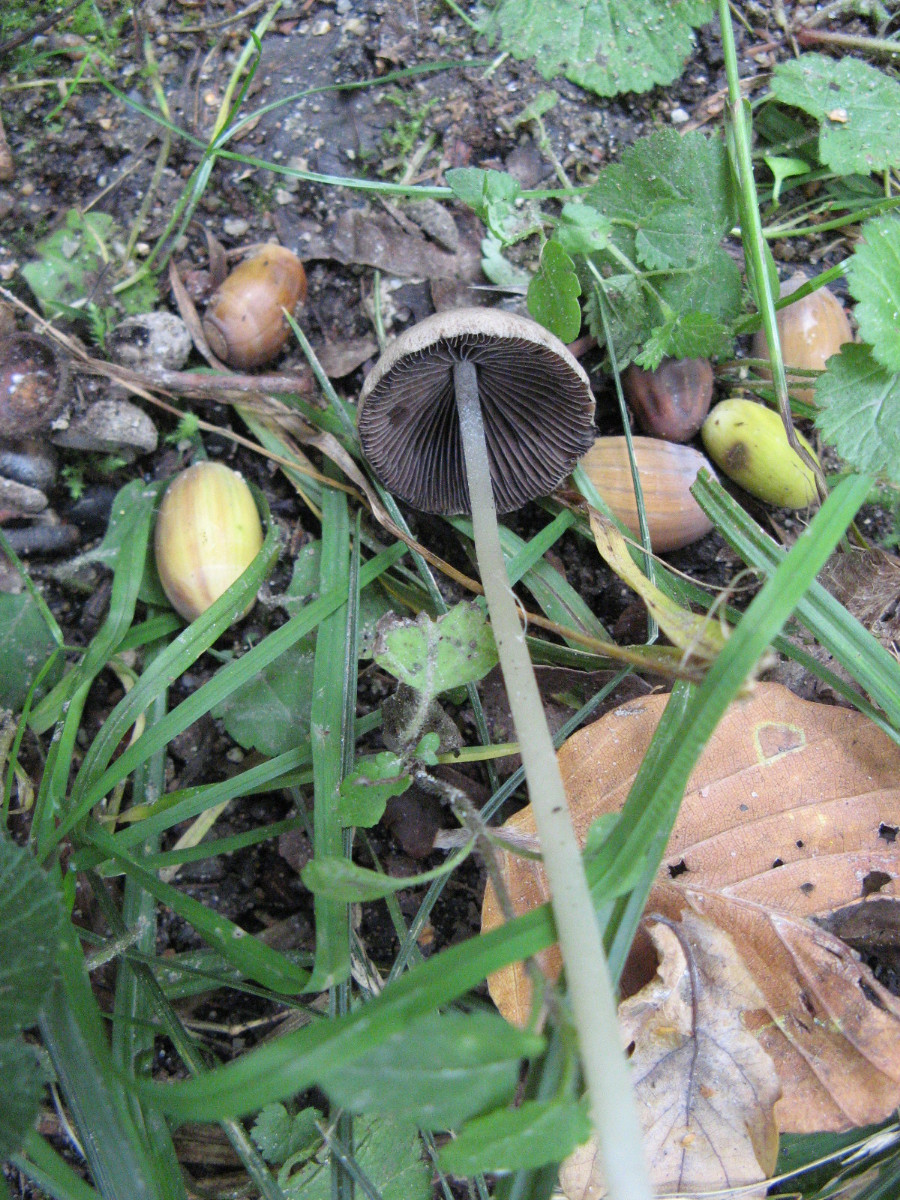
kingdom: Fungi
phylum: Basidiomycota
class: Agaricomycetes
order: Agaricales
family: Psathyrellaceae
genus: Parasola
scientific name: Parasola conopilea
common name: kegle-hjulhat
